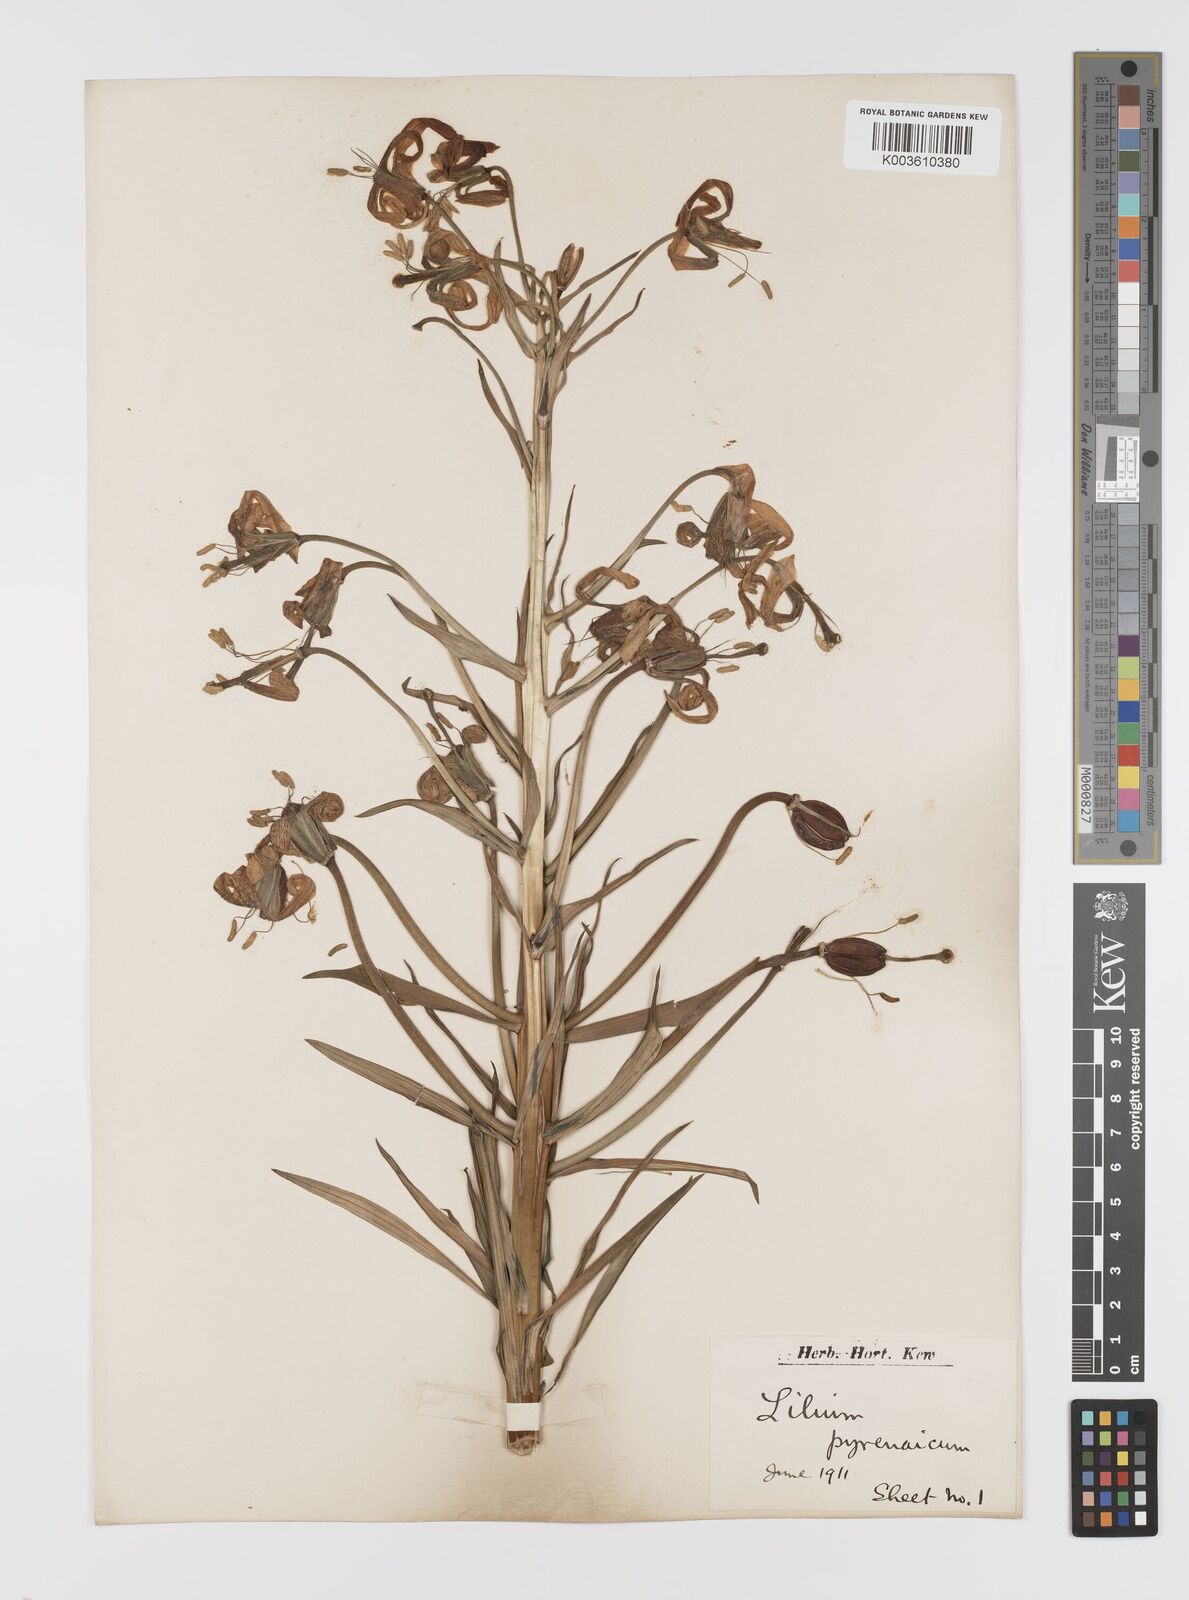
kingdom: Plantae
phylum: Tracheophyta
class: Liliopsida
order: Liliales
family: Liliaceae
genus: Lilium
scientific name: Lilium pyrenaicum
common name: Pyrenean lily
